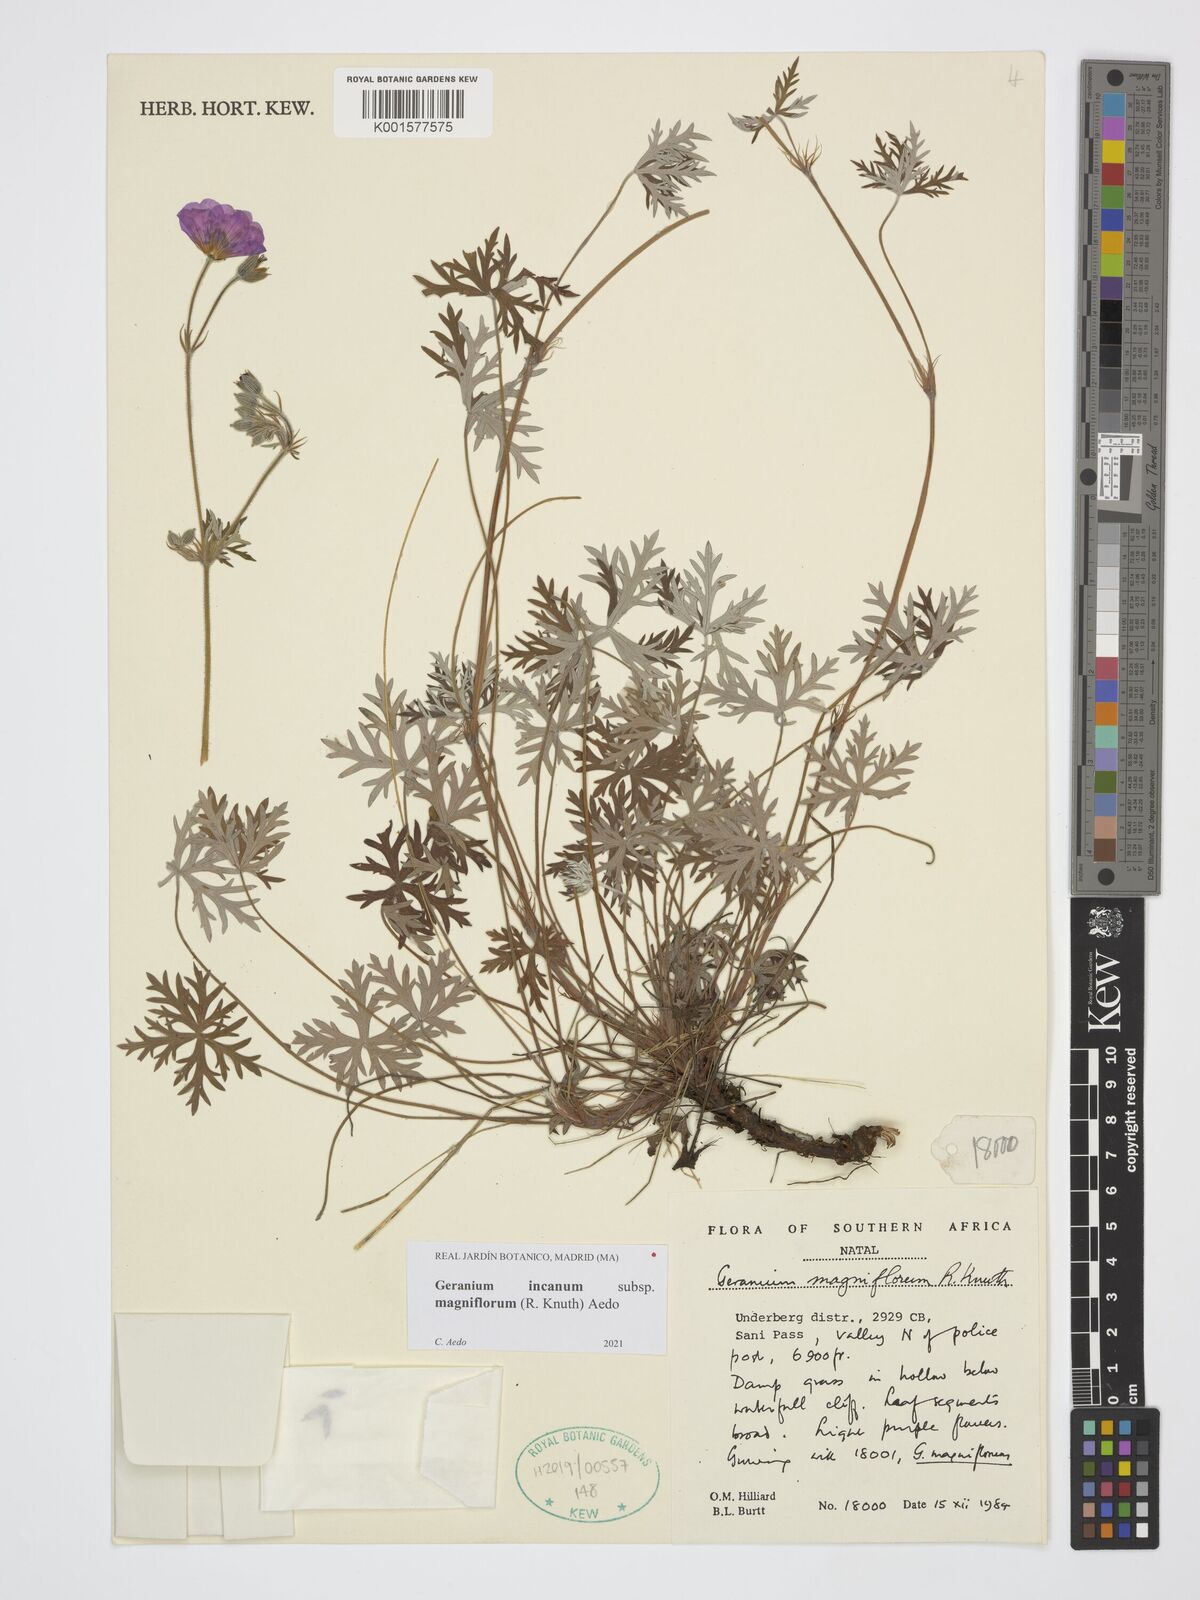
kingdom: Plantae
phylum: Tracheophyta
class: Magnoliopsida
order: Geraniales
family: Geraniaceae
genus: Geranium
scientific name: Geranium incanum
